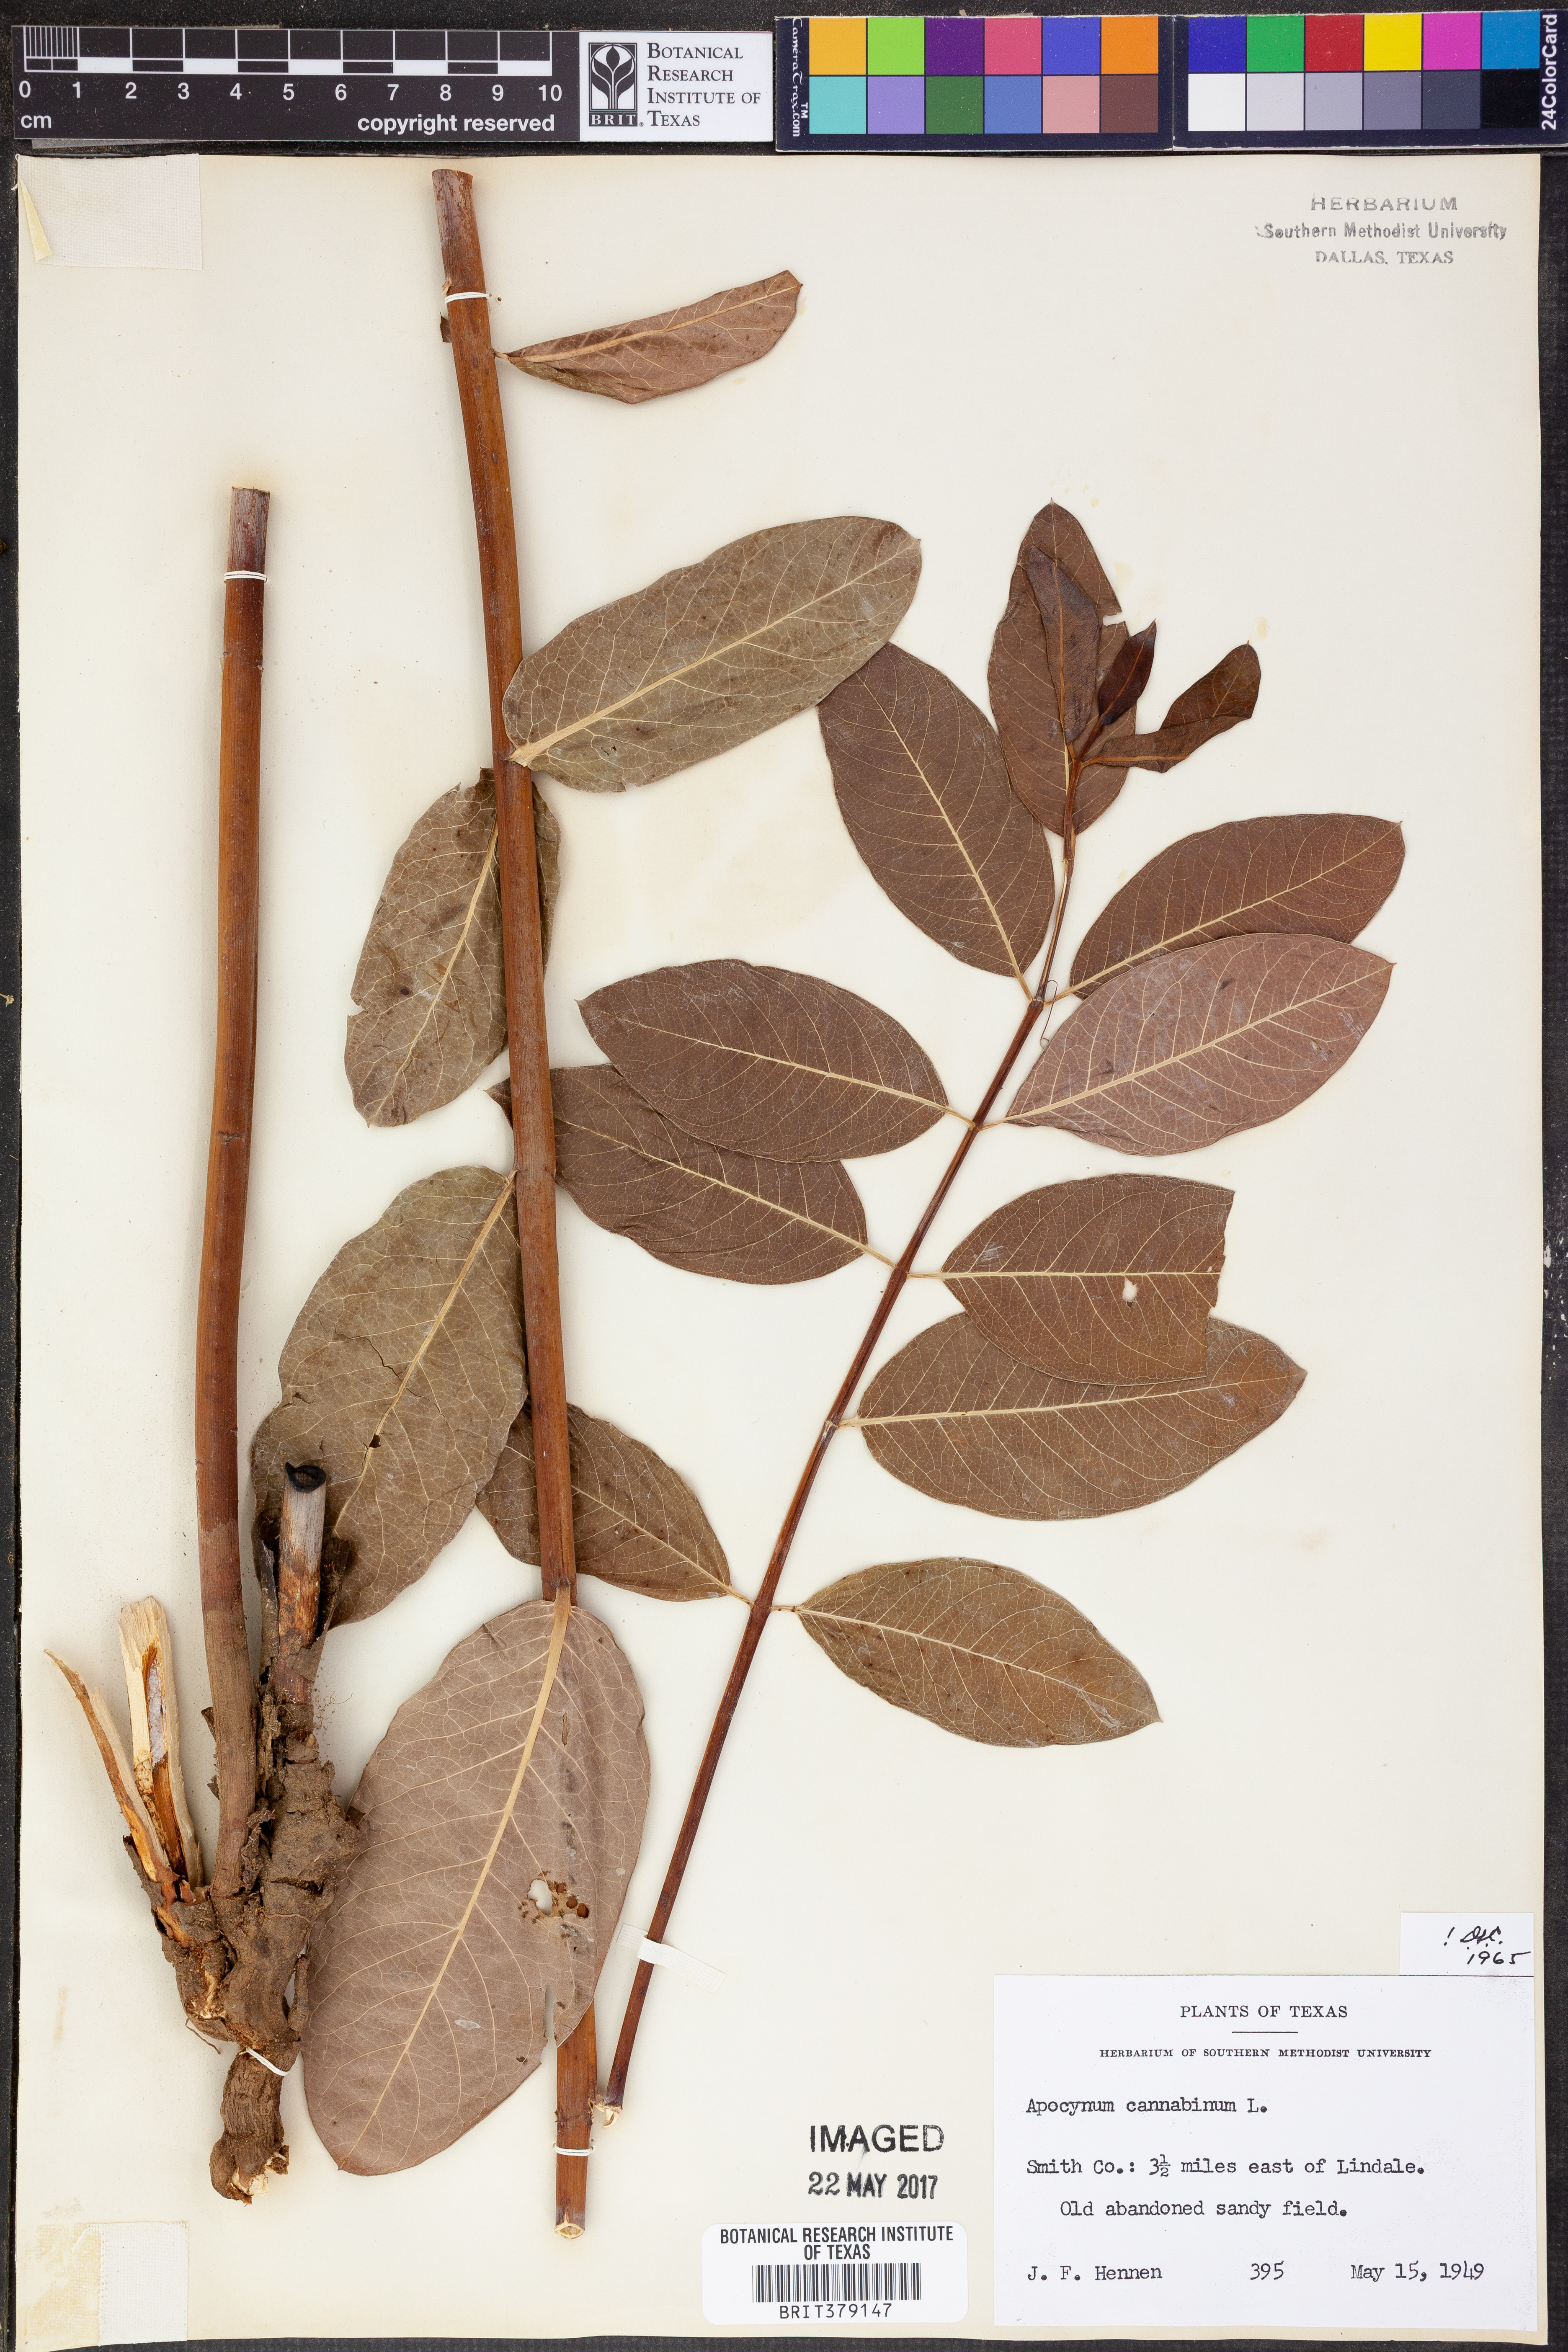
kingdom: Plantae
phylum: Tracheophyta
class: Magnoliopsida
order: Gentianales
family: Apocynaceae
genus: Apocynum
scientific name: Apocynum cannabinum
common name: Hemp dogbane
